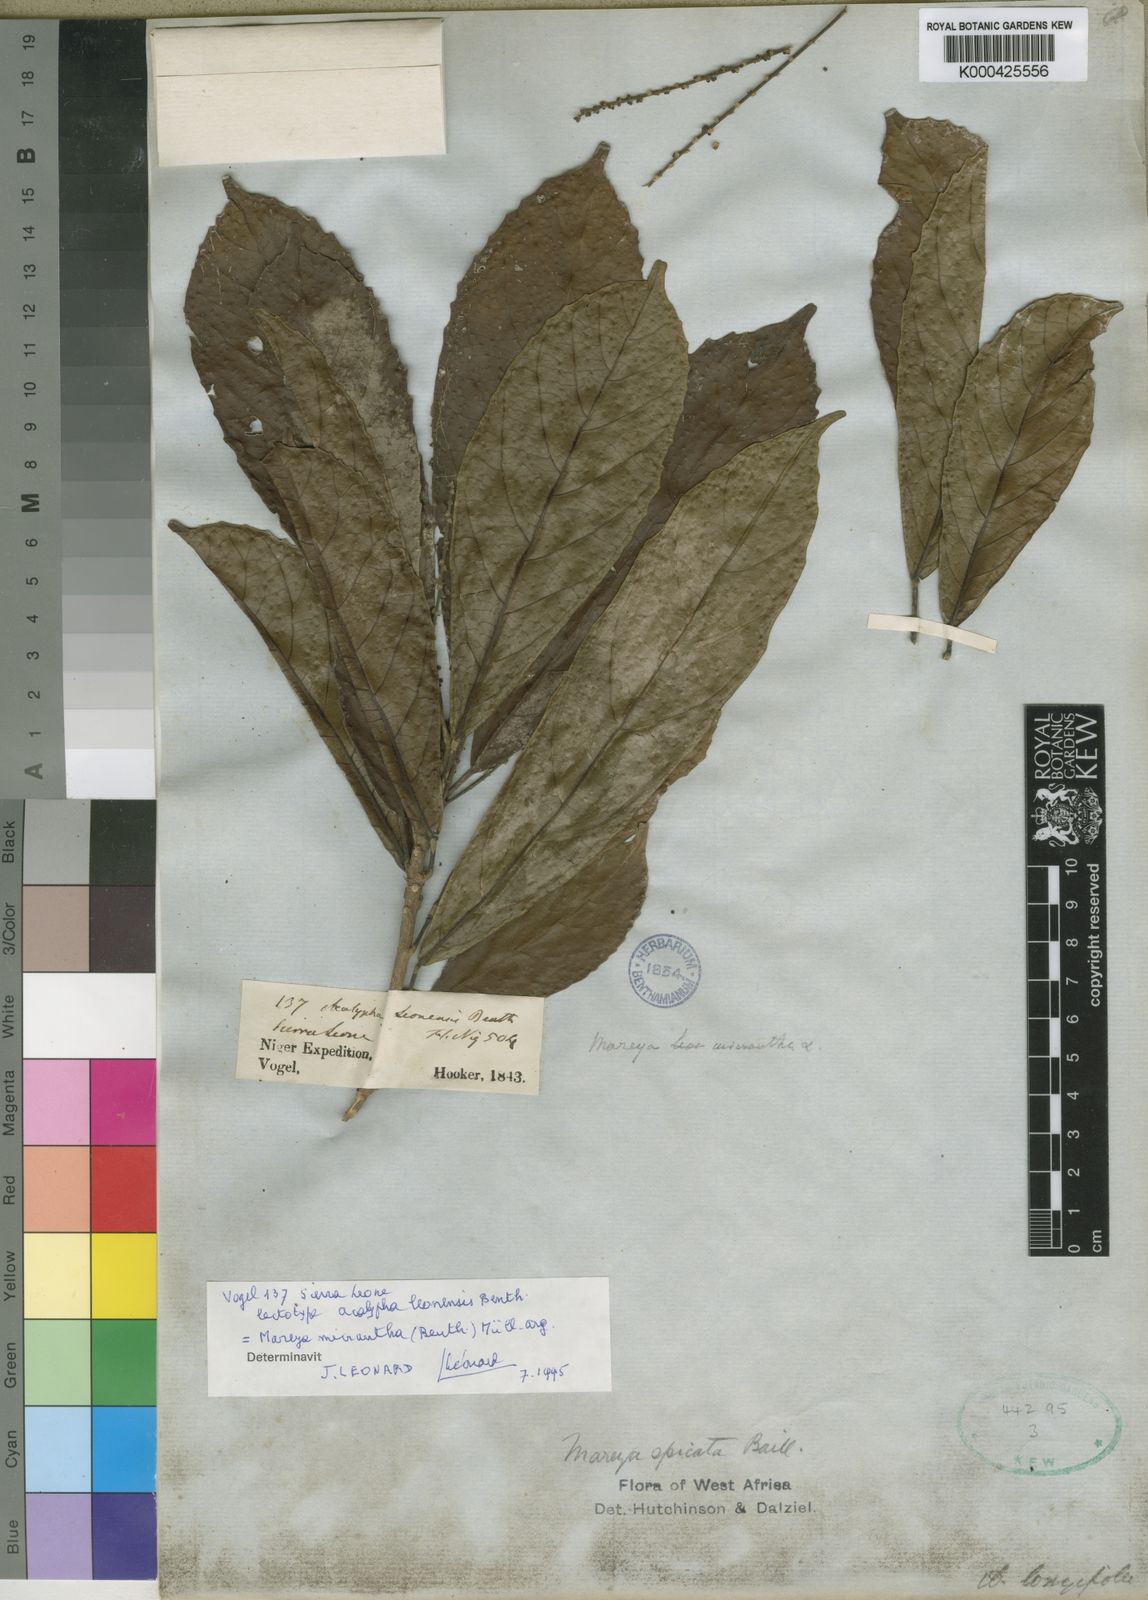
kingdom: Plantae
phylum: Tracheophyta
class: Magnoliopsida
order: Malpighiales
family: Euphorbiaceae
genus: Mareya
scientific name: Mareya micrantha
